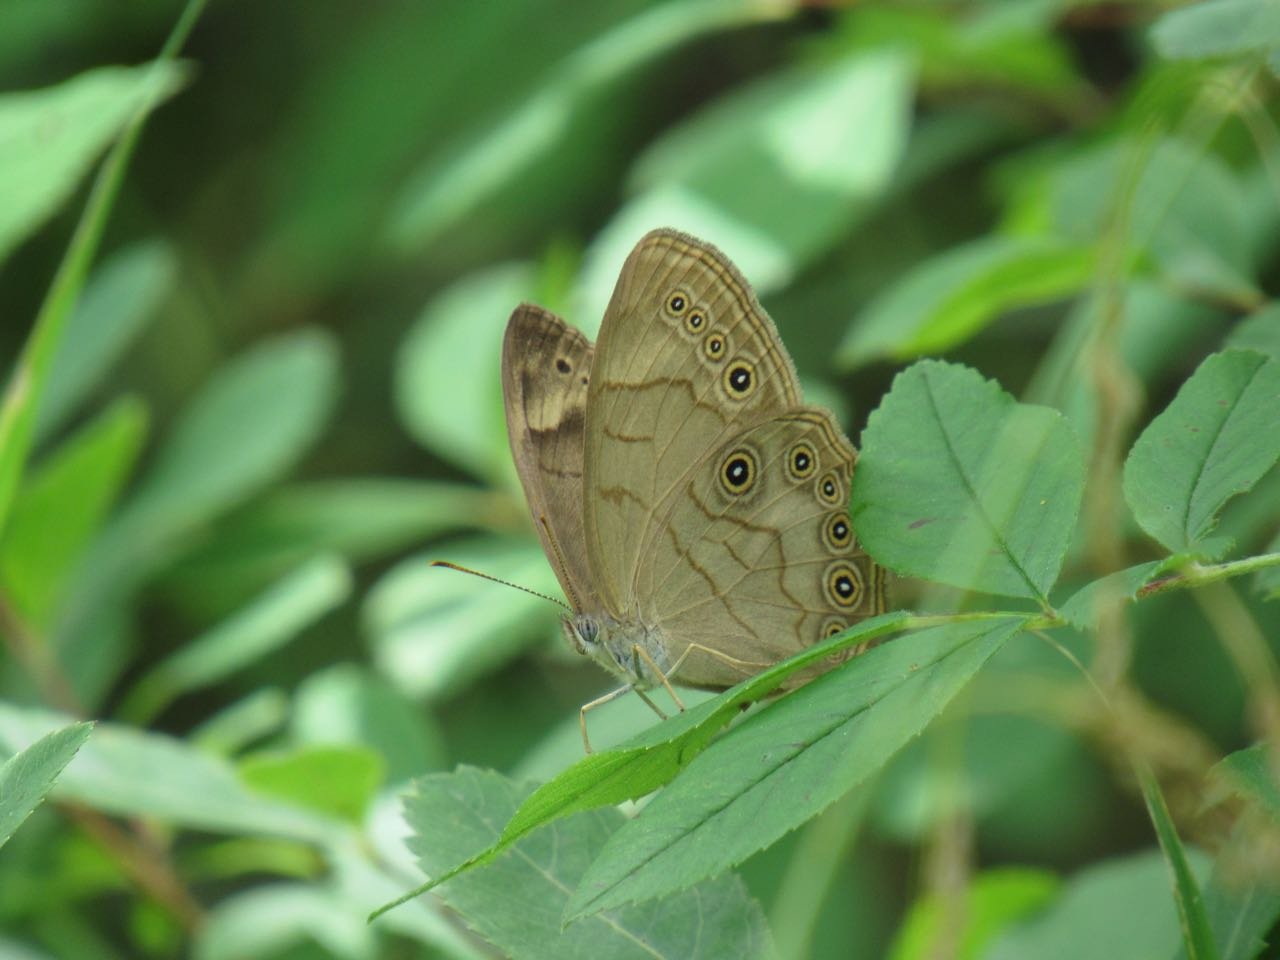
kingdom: Animalia
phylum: Arthropoda
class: Insecta
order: Lepidoptera
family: Nymphalidae
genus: Lethe
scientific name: Lethe eurydice
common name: Appalachian Eyed Brown
